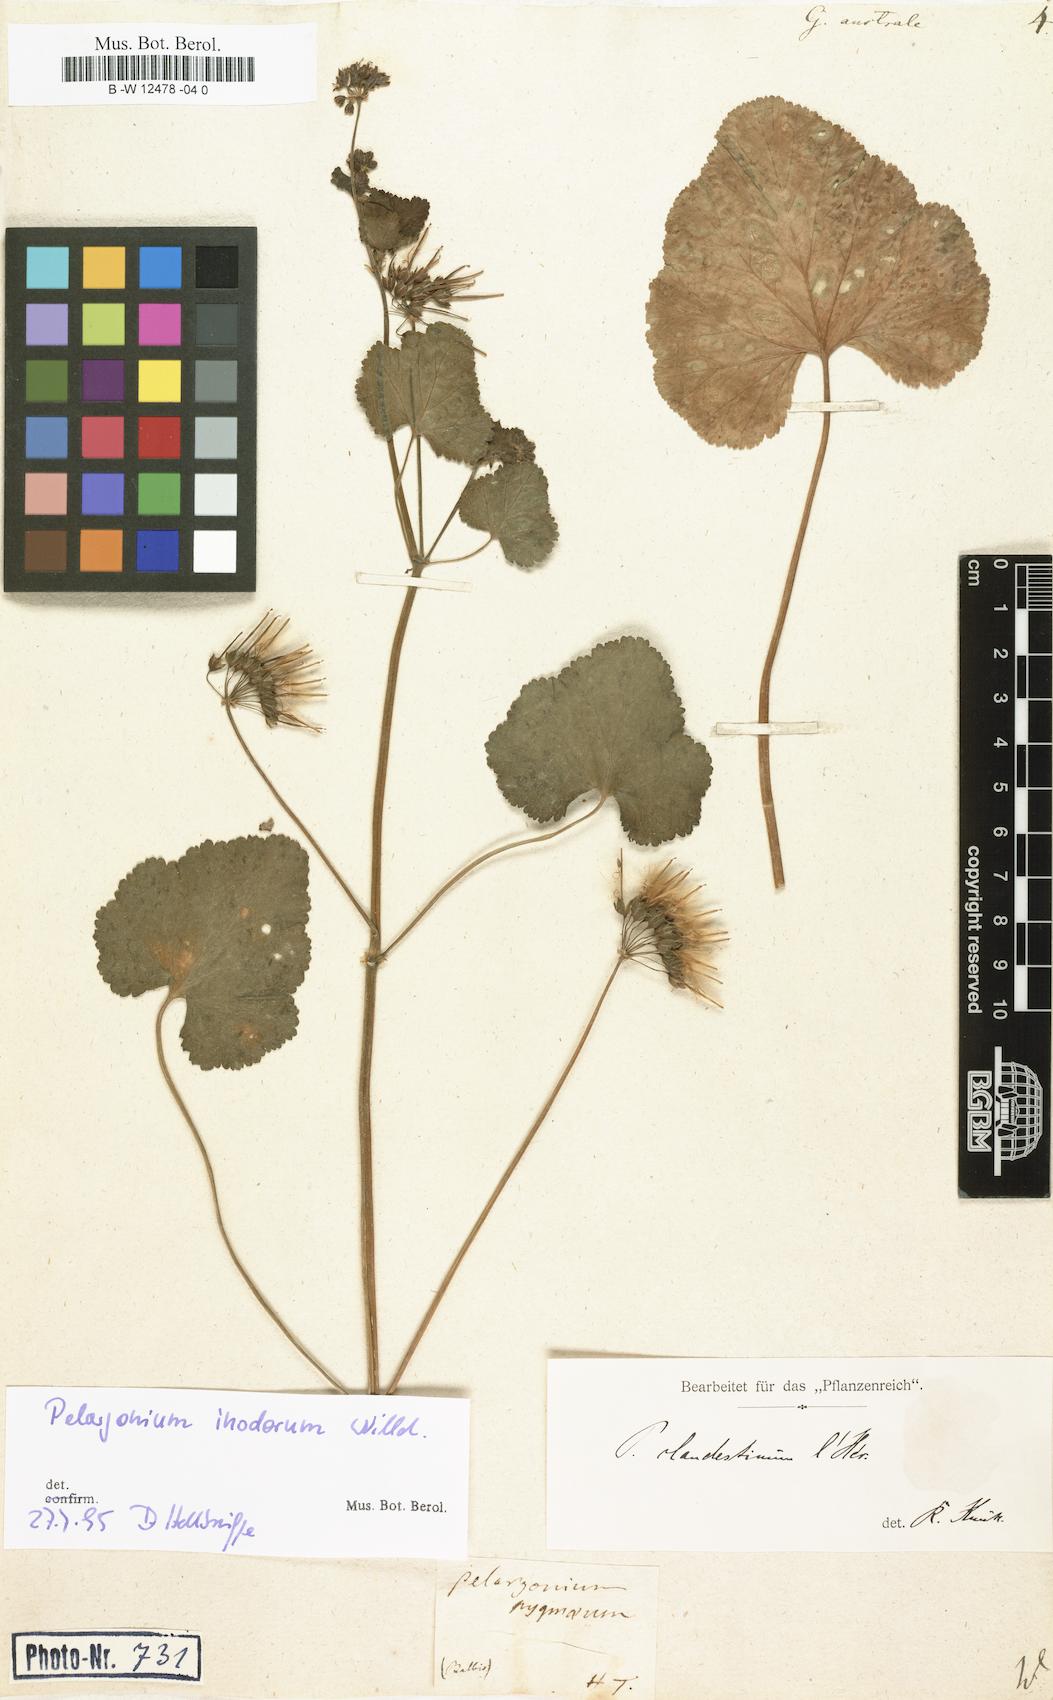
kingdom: Plantae
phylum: Tracheophyta
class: Magnoliopsida
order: Geraniales
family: Geraniaceae
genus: Pelargonium
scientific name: Pelargonium australe
